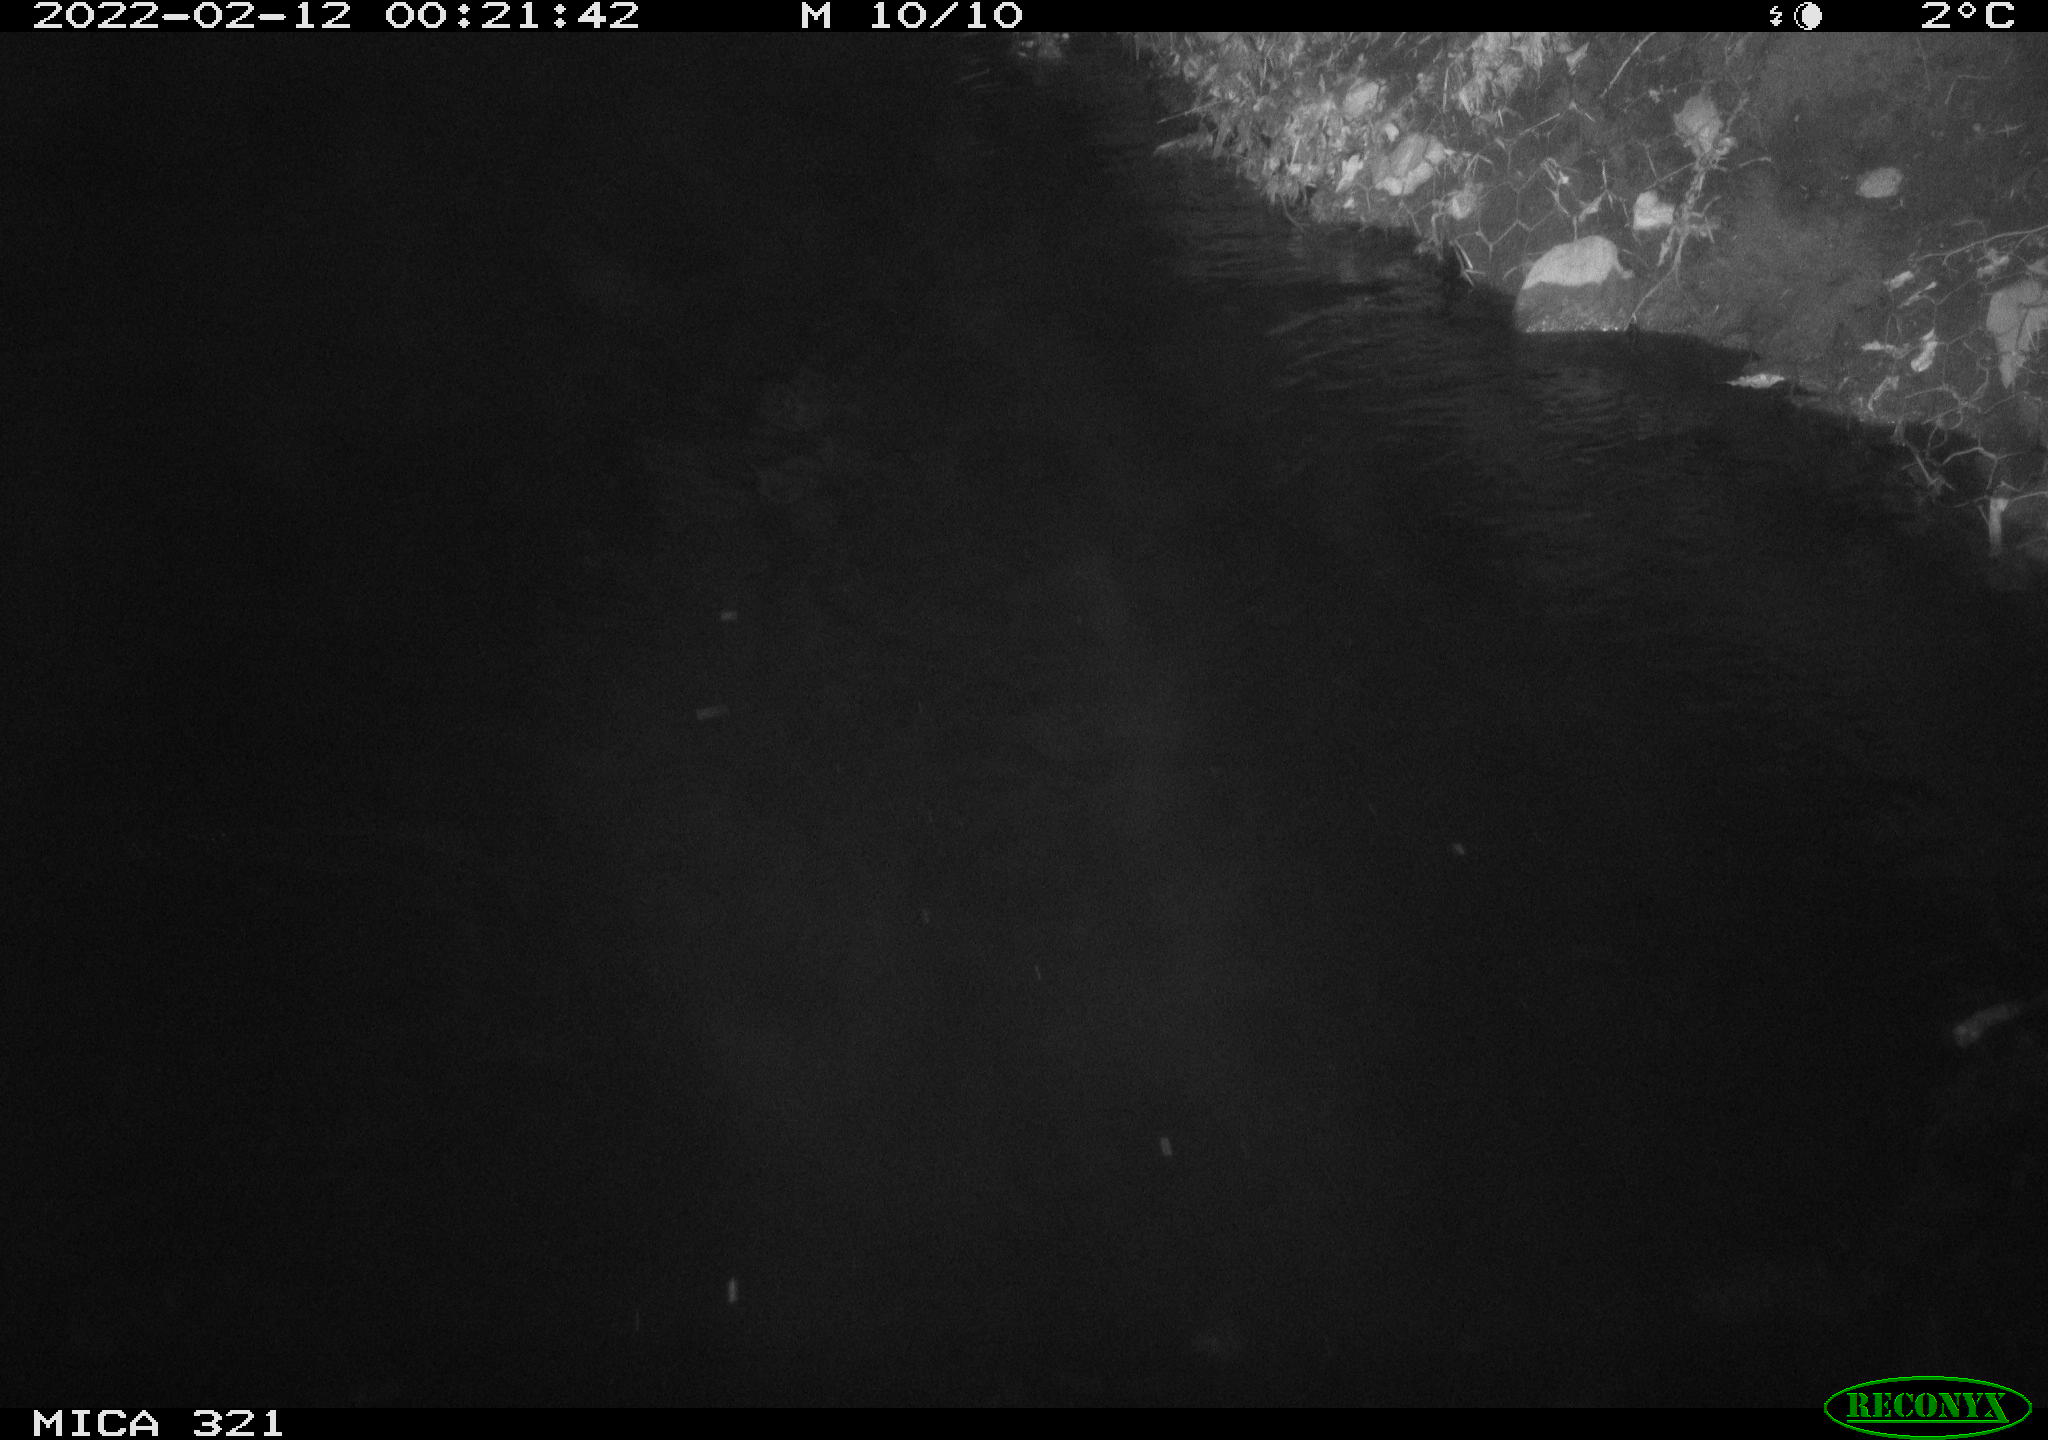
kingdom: Animalia
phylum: Chordata
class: Aves
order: Anseriformes
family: Anatidae
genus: Anas
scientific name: Anas platyrhynchos
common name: Mallard
